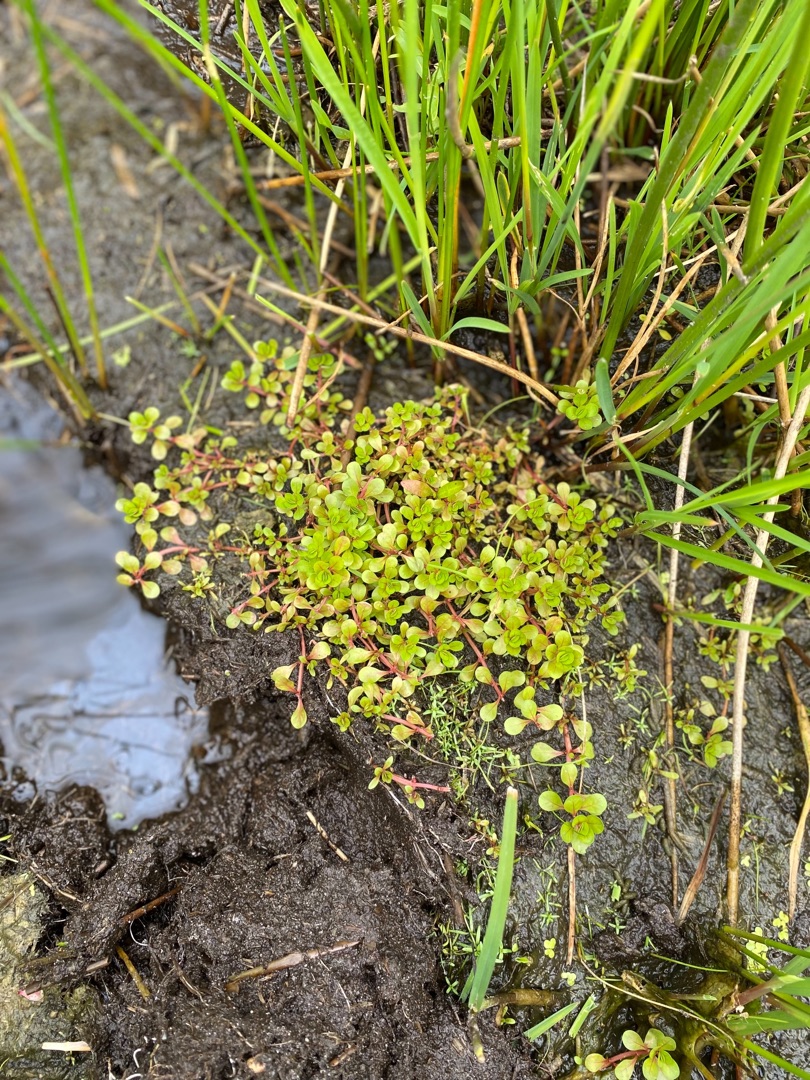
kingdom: Plantae
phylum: Tracheophyta
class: Magnoliopsida
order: Myrtales
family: Lythraceae
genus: Lythrum
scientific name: Lythrum portula
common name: Vandportulak
